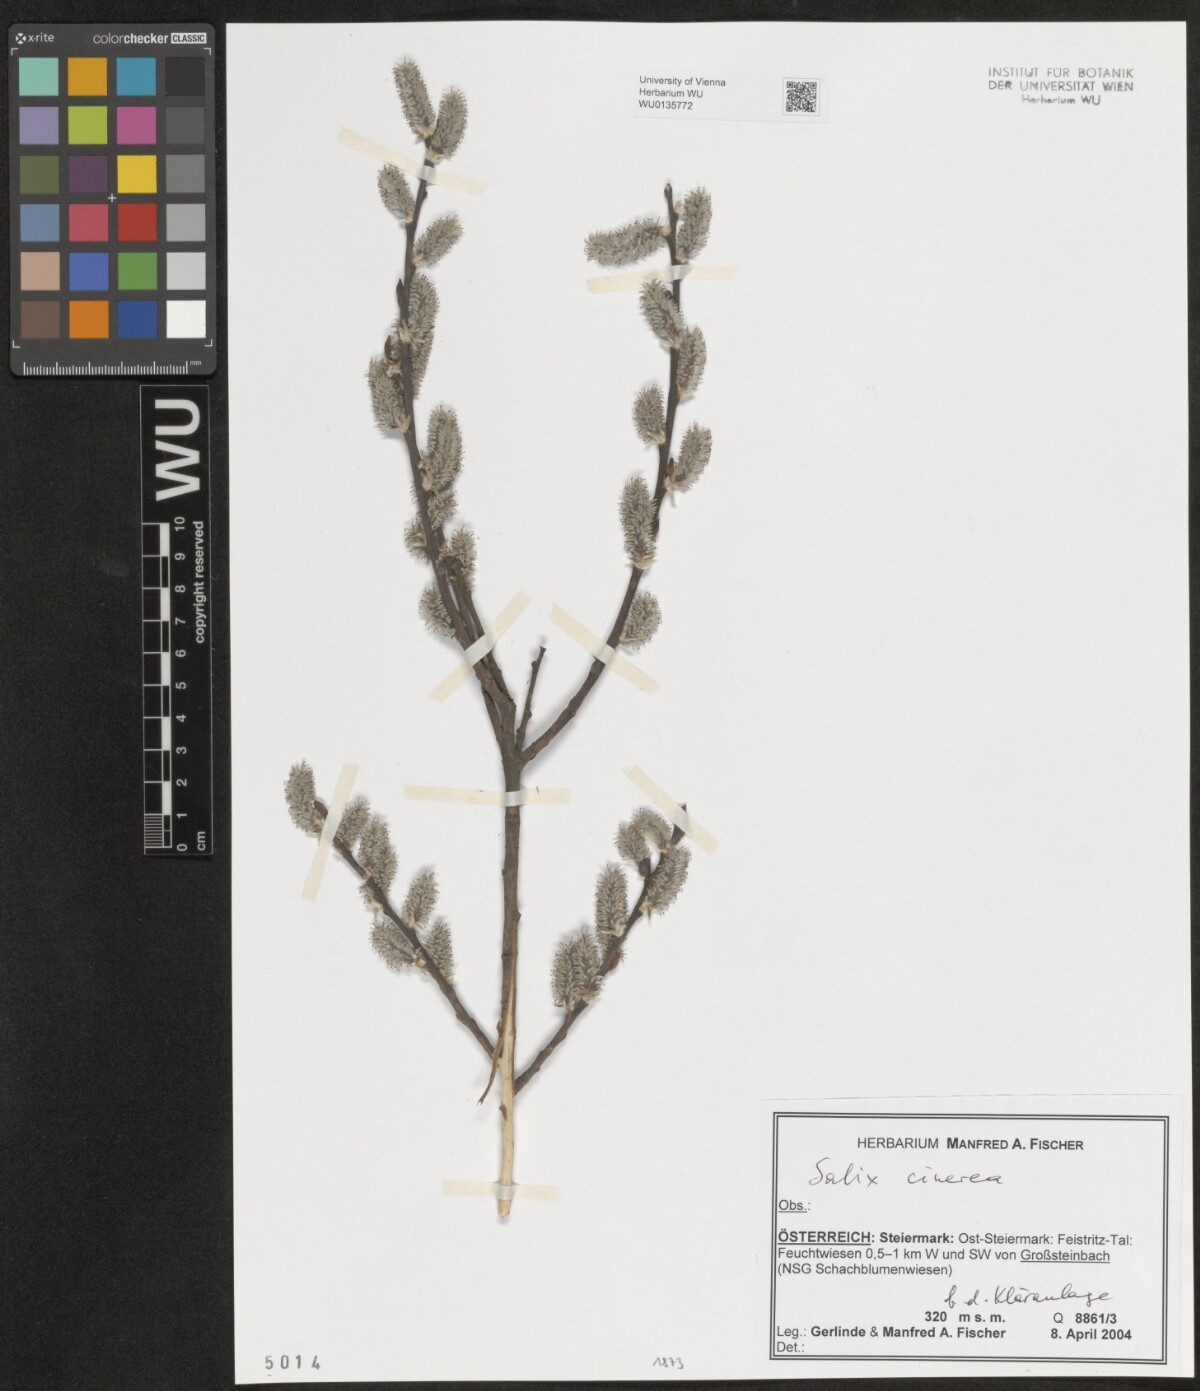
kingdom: Plantae
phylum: Tracheophyta
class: Magnoliopsida
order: Malpighiales
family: Salicaceae
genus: Salix
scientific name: Salix cinerea
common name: Common sallow
